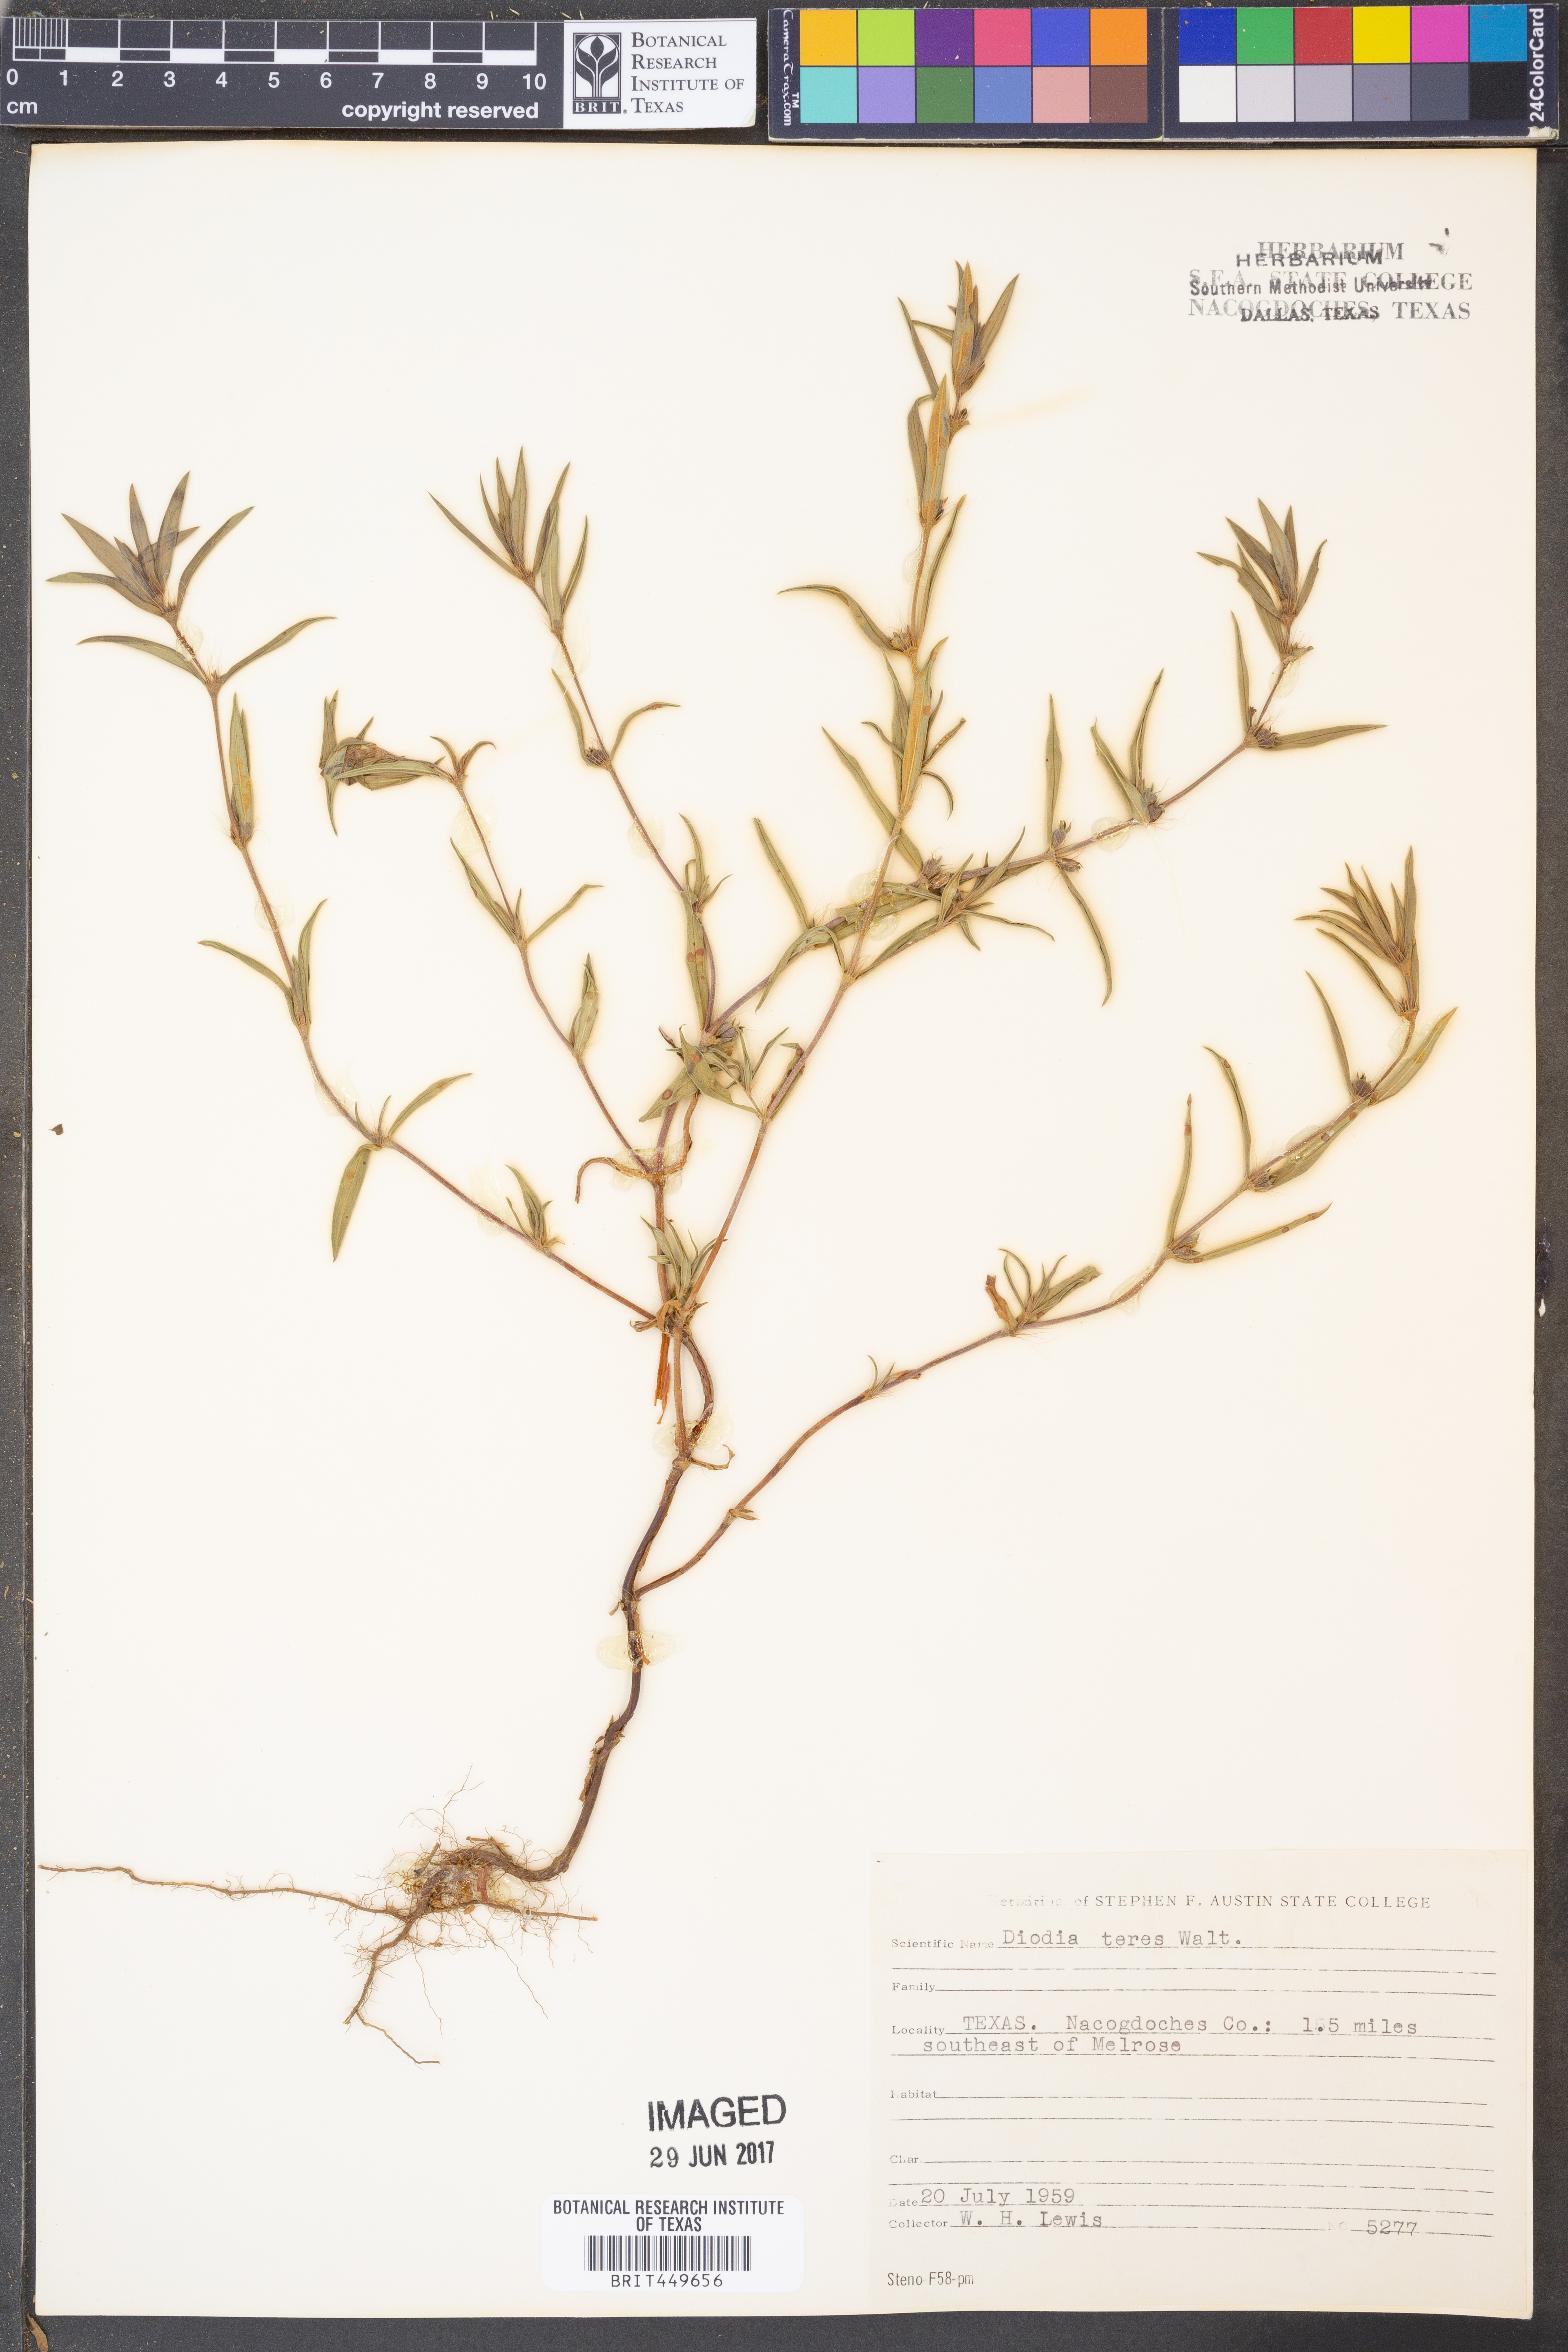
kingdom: Plantae
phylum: Tracheophyta
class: Magnoliopsida
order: Gentianales
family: Rubiaceae
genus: Hexasepalum
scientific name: Hexasepalum teres
